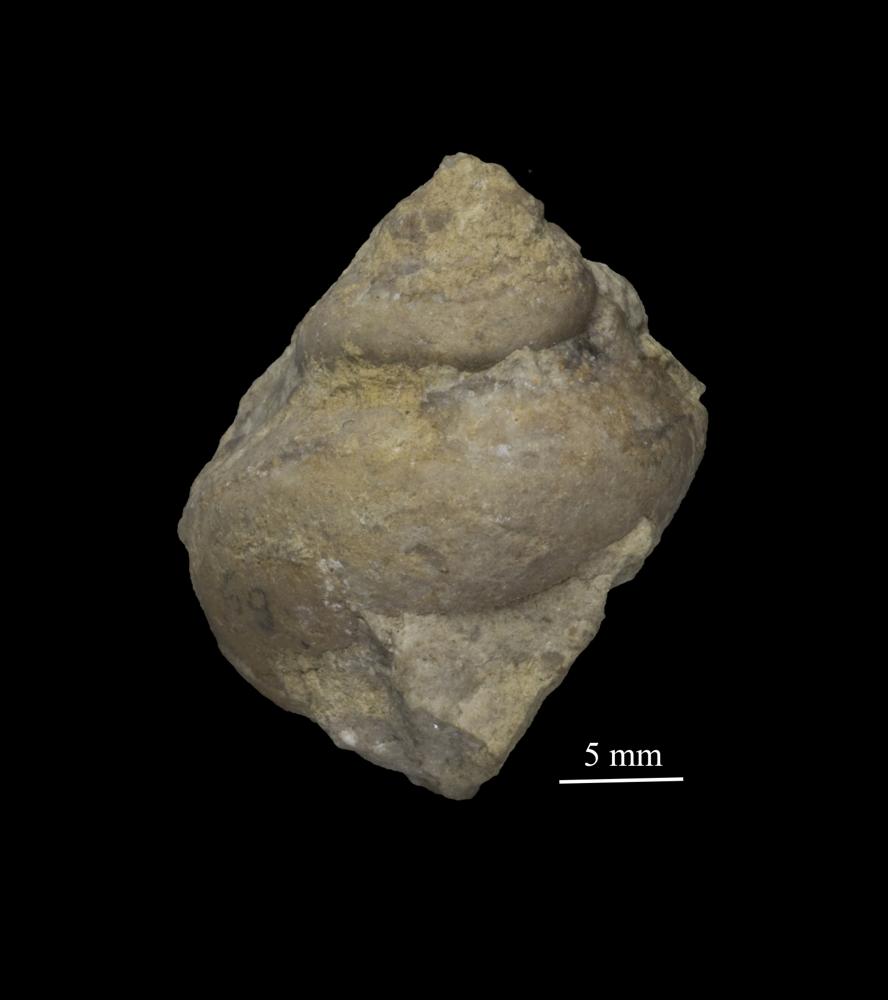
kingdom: Animalia
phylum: Mollusca
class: Gastropoda
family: Lophospiridae
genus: Loxoplocus
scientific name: Loxoplocus Lophospira sedgwicki
